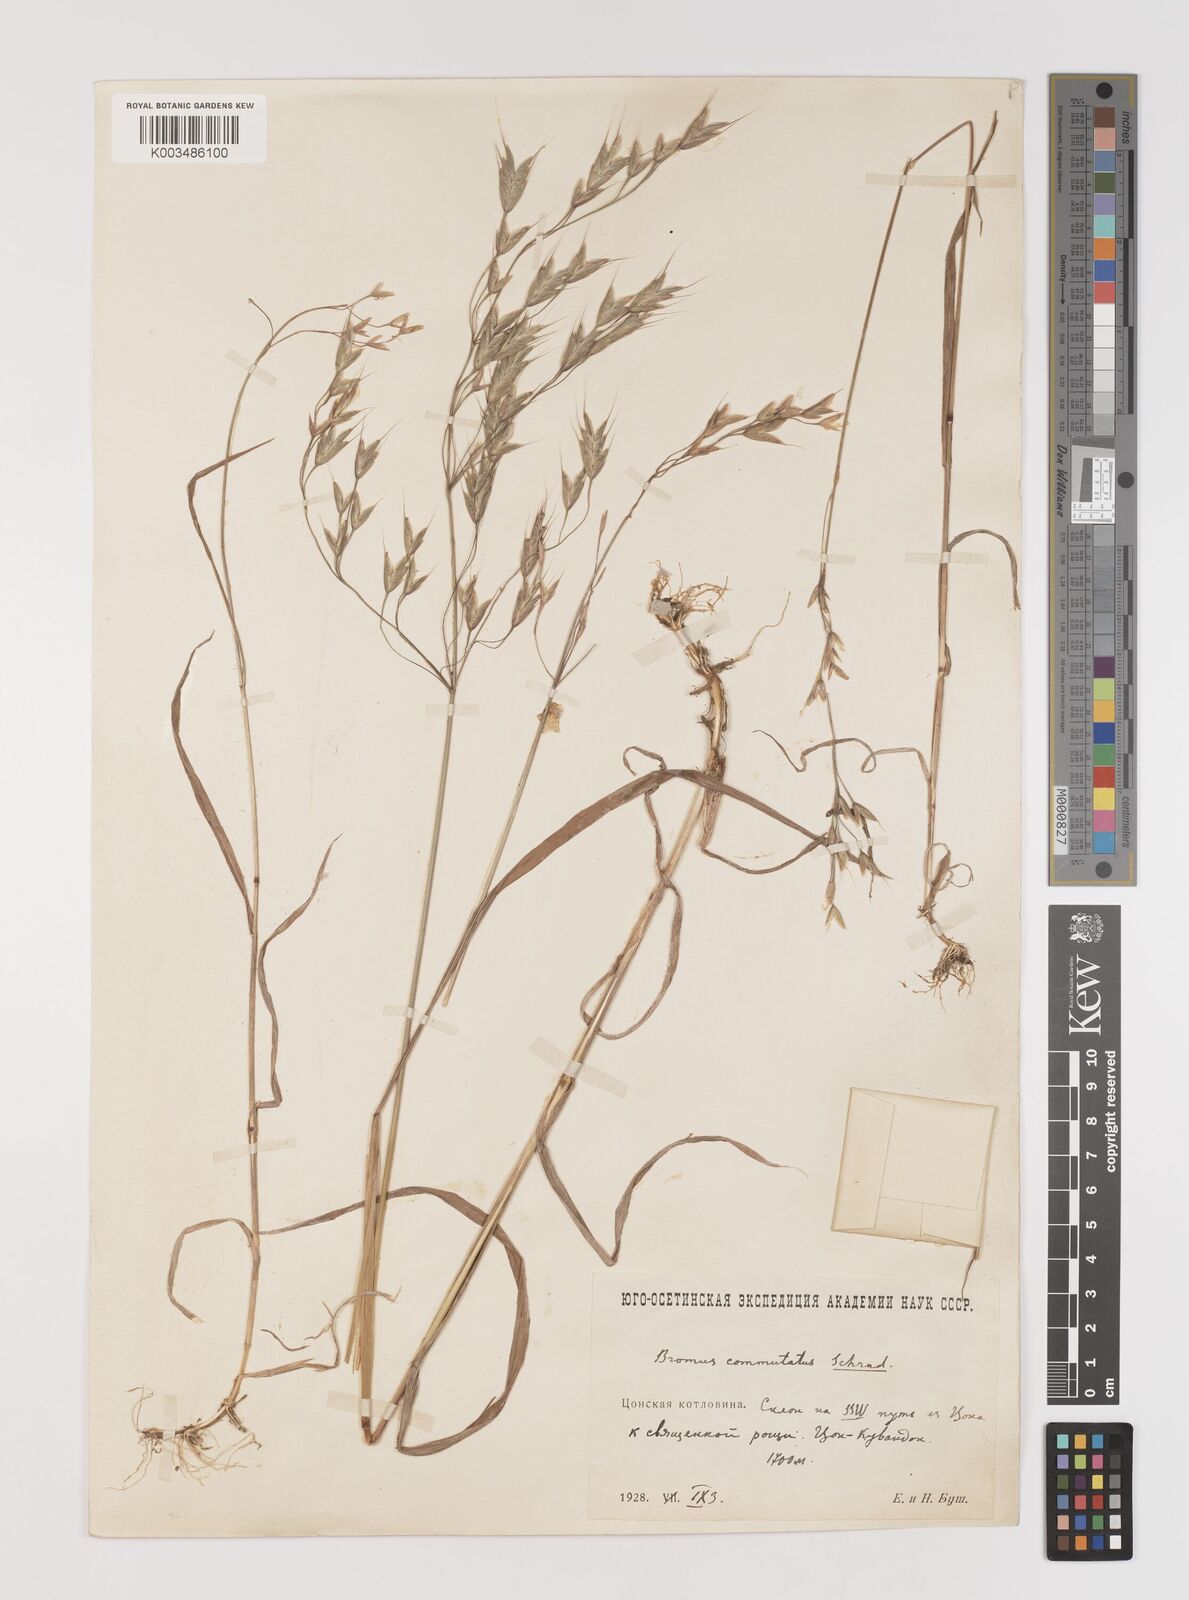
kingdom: Plantae
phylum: Tracheophyta
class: Liliopsida
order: Poales
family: Poaceae
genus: Bromus
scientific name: Bromus racemosus
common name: Bald brome
